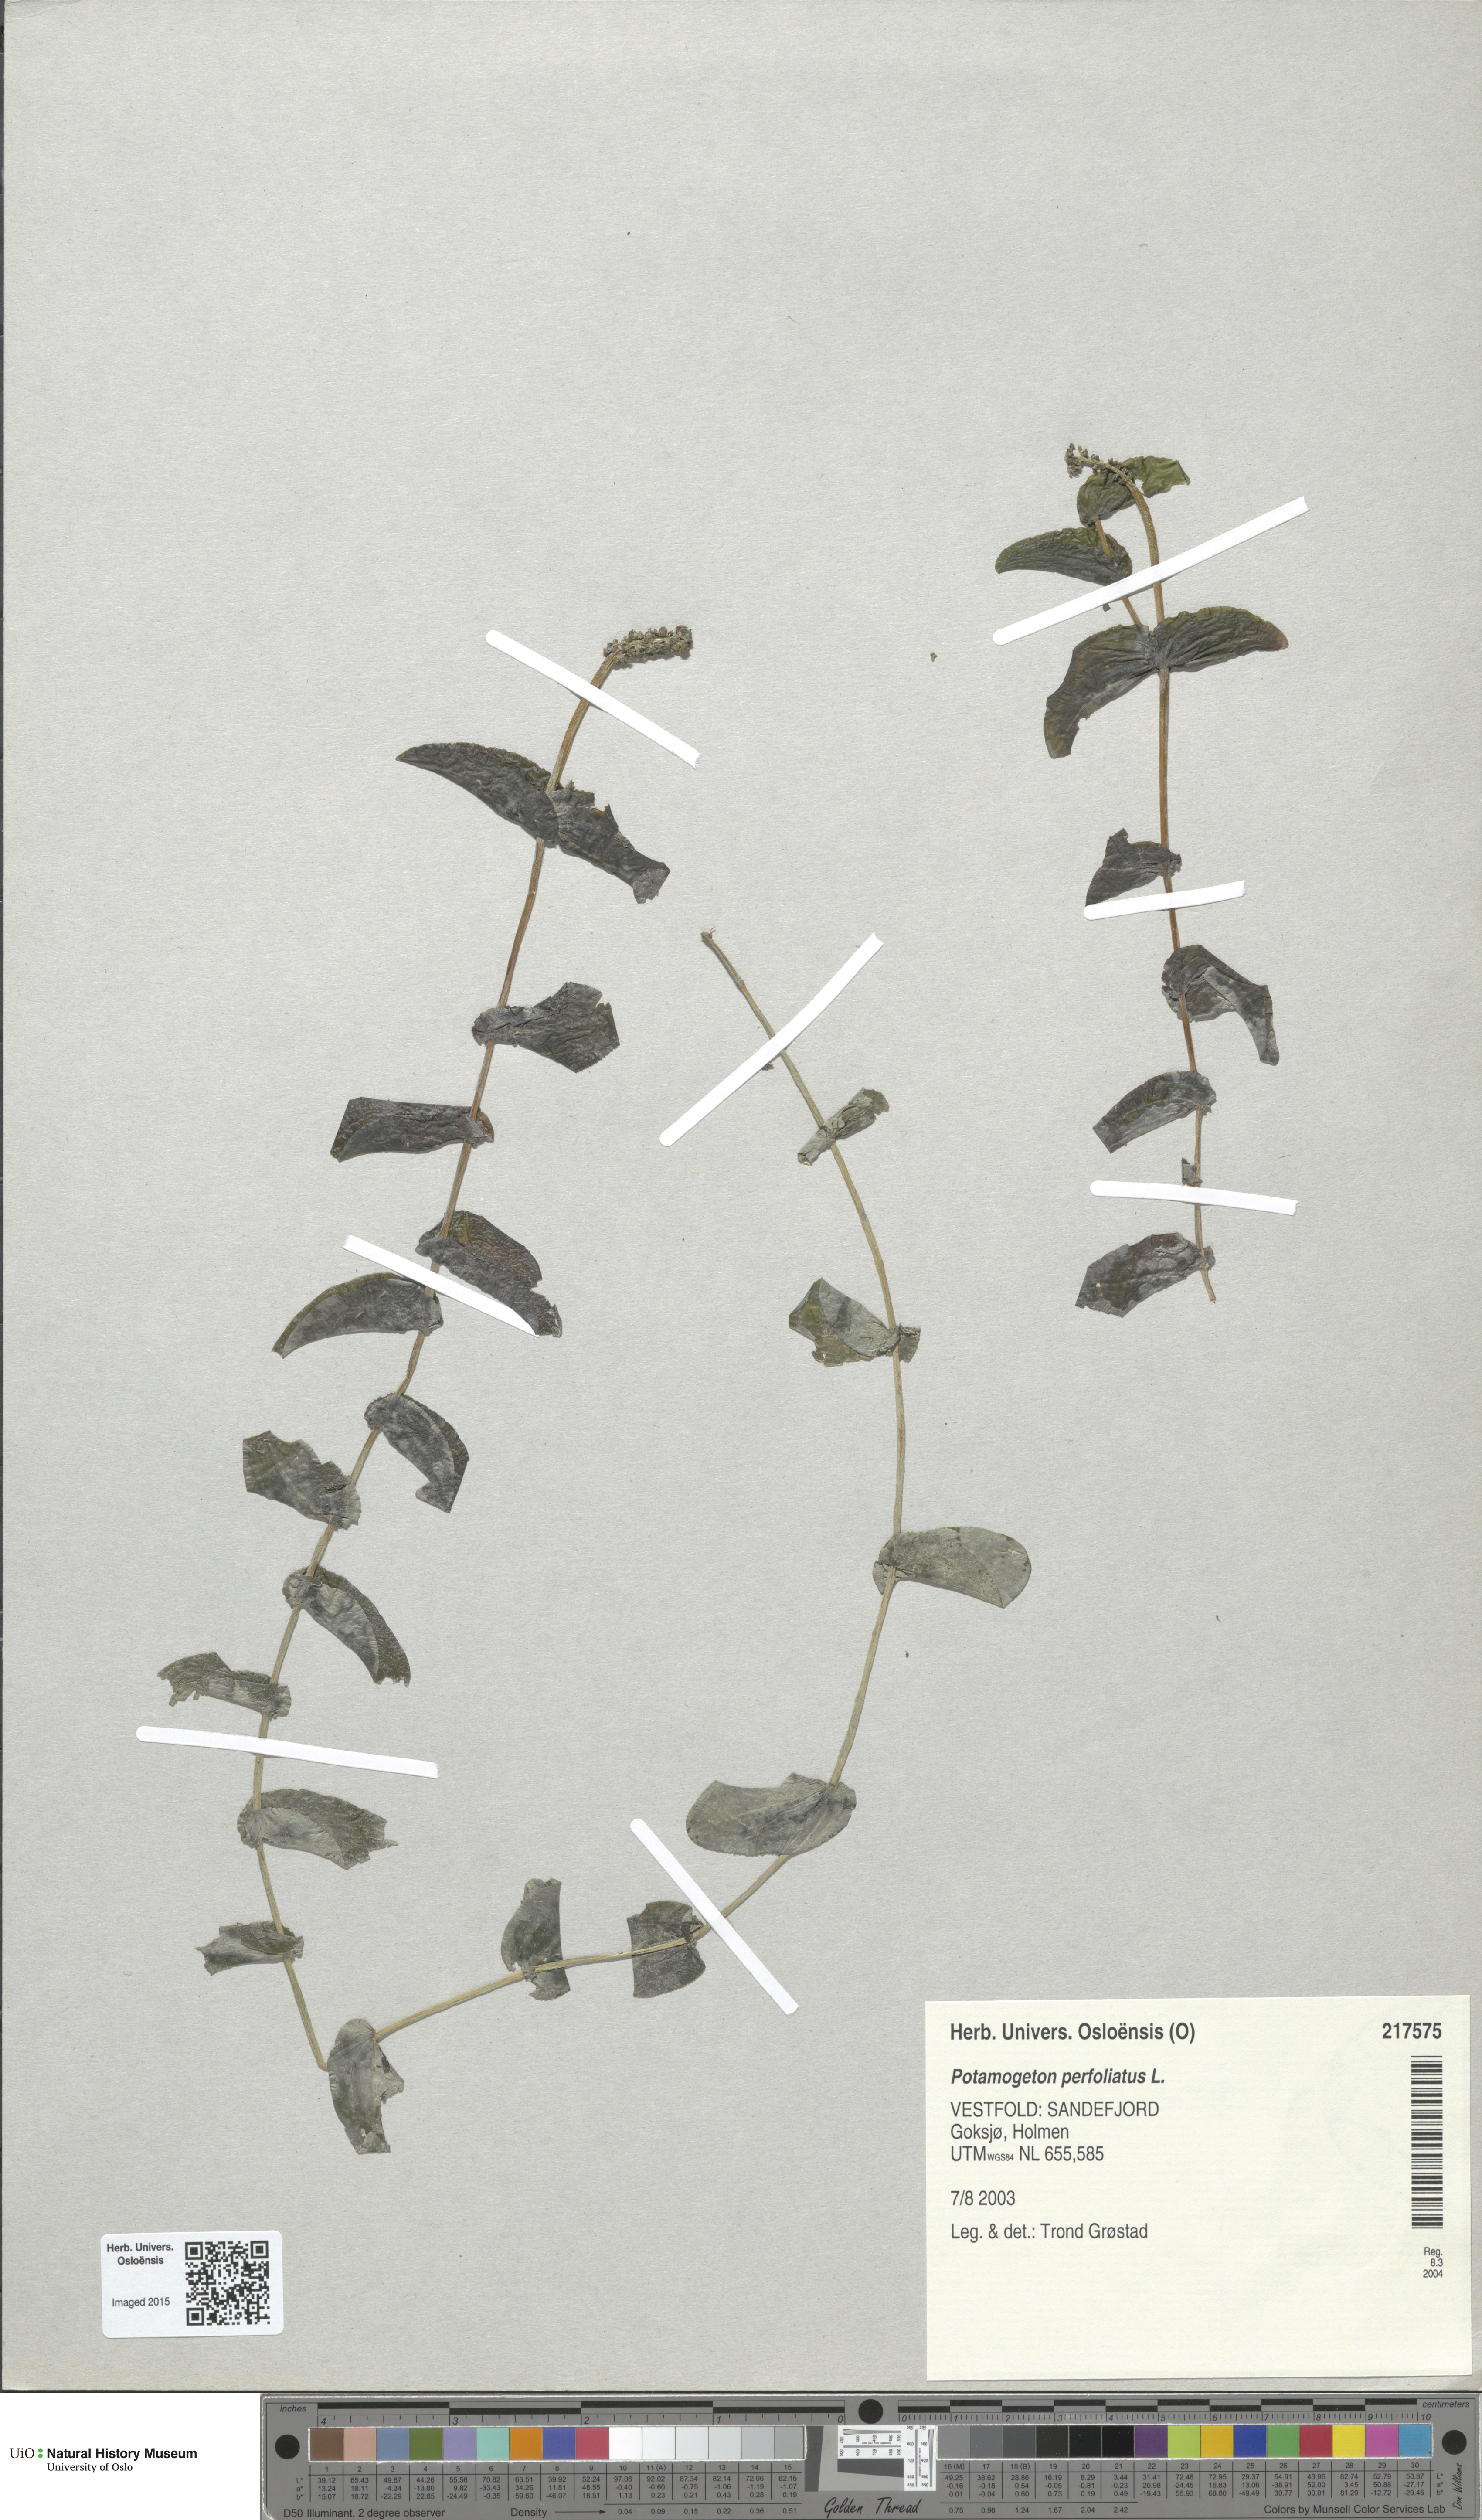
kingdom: Plantae
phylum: Tracheophyta
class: Liliopsida
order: Alismatales
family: Potamogetonaceae
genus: Potamogeton
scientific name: Potamogeton perfoliatus
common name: Perfoliate pondweed
